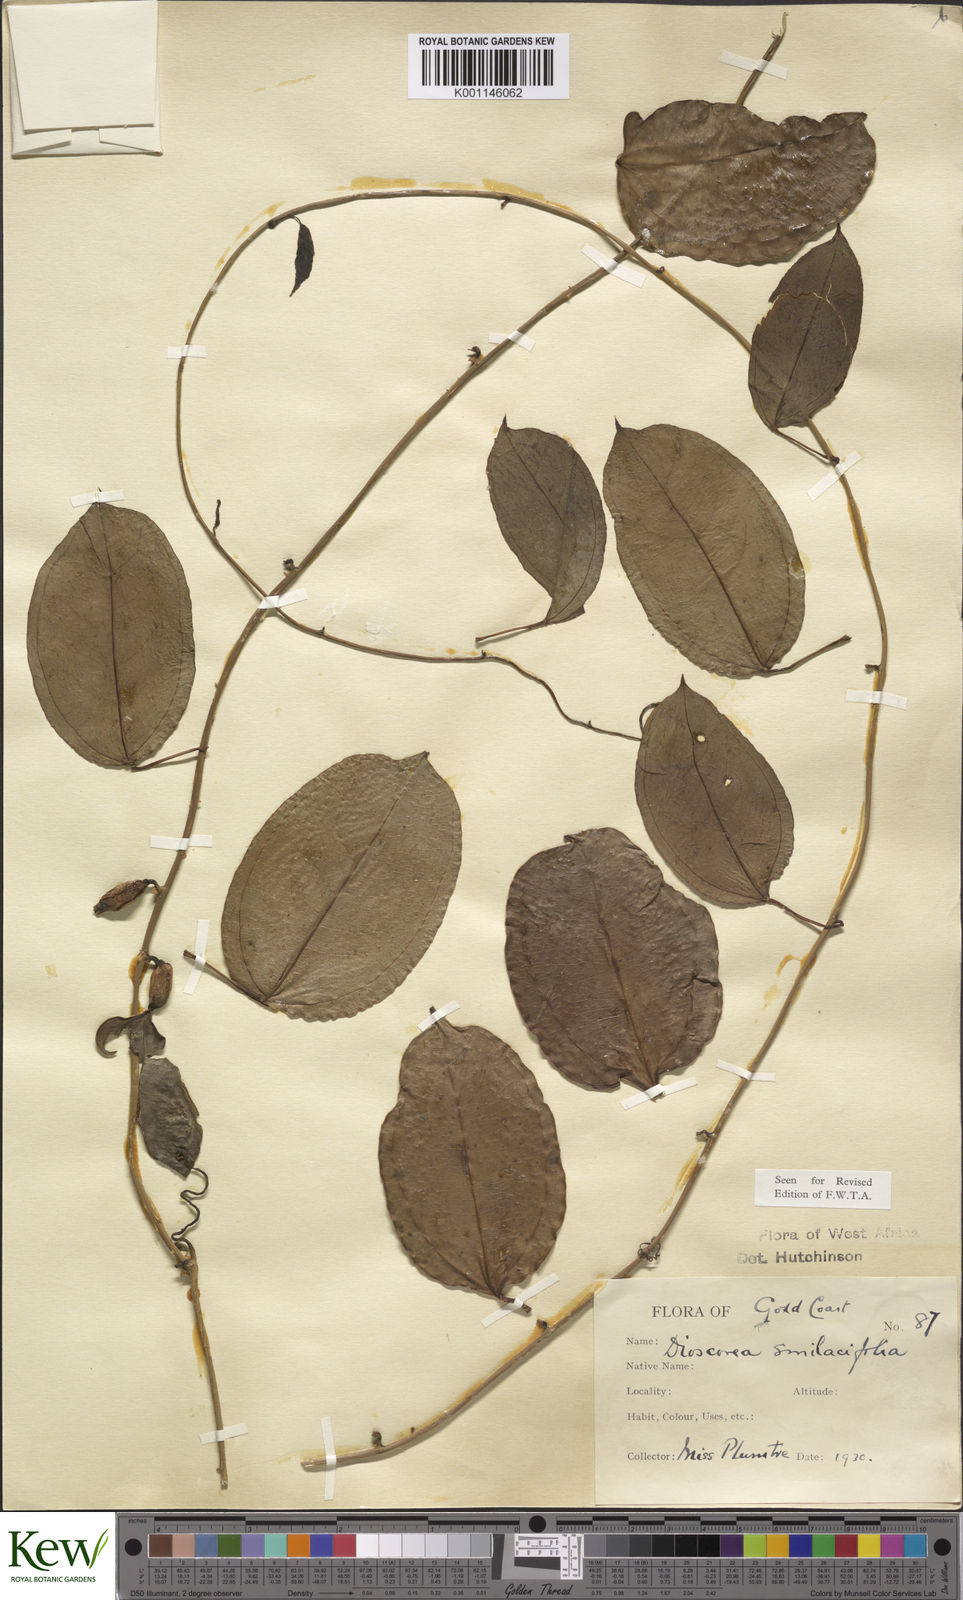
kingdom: Plantae
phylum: Tracheophyta
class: Liliopsida
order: Dioscoreales
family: Dioscoreaceae
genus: Dioscorea
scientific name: Dioscorea smilacifolia
